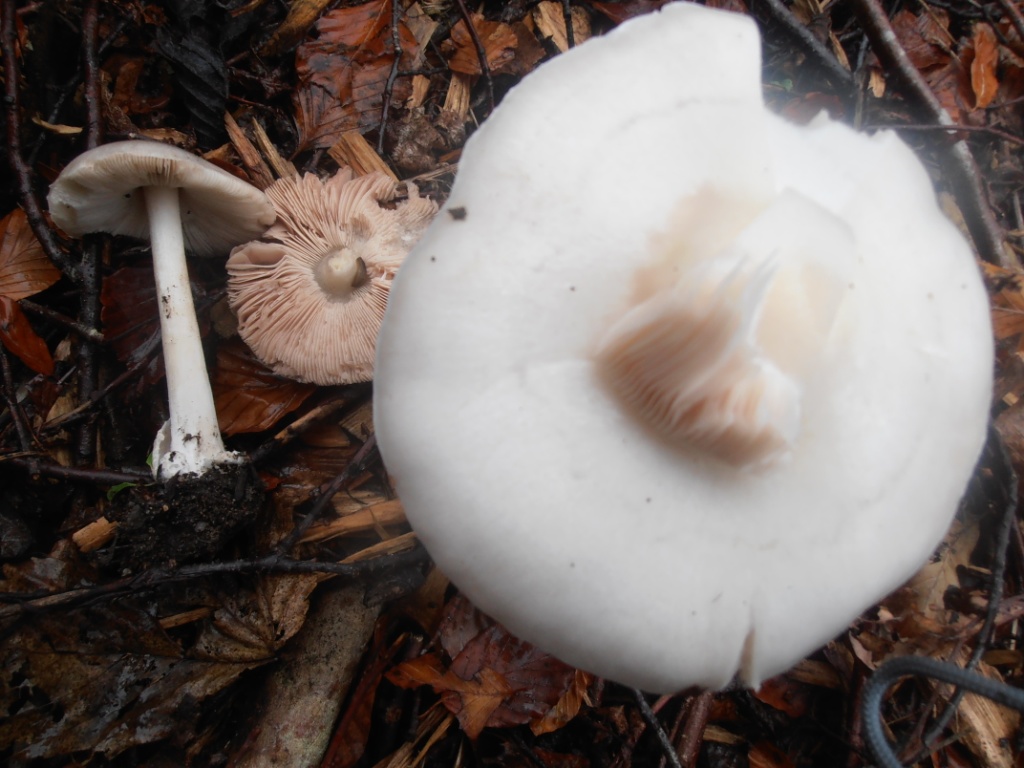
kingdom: Fungi
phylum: Basidiomycota
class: Agaricomycetes
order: Agaricales
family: Pluteaceae
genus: Volvopluteus
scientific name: Volvopluteus gloiocephalus
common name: høj posesvamp
